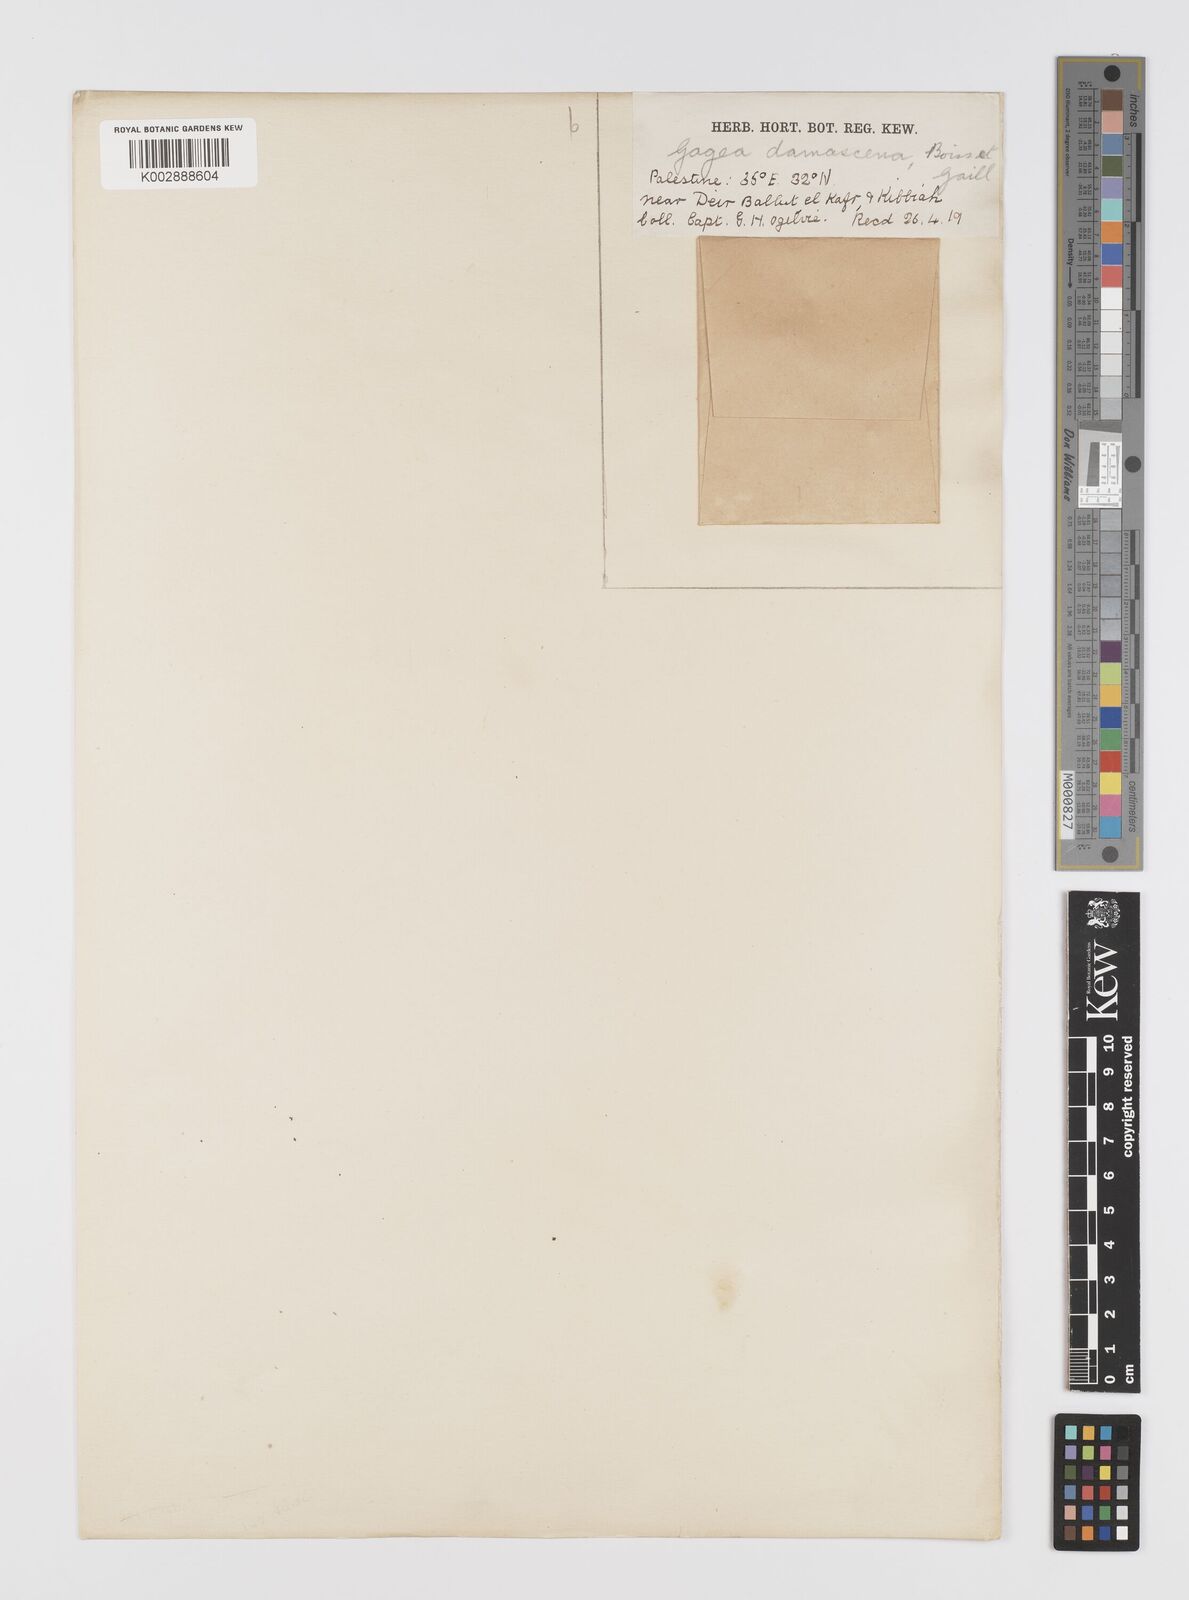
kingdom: Plantae
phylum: Tracheophyta
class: Liliopsida
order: Liliales
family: Liliaceae
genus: Gagea
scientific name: Gagea chlorantha
